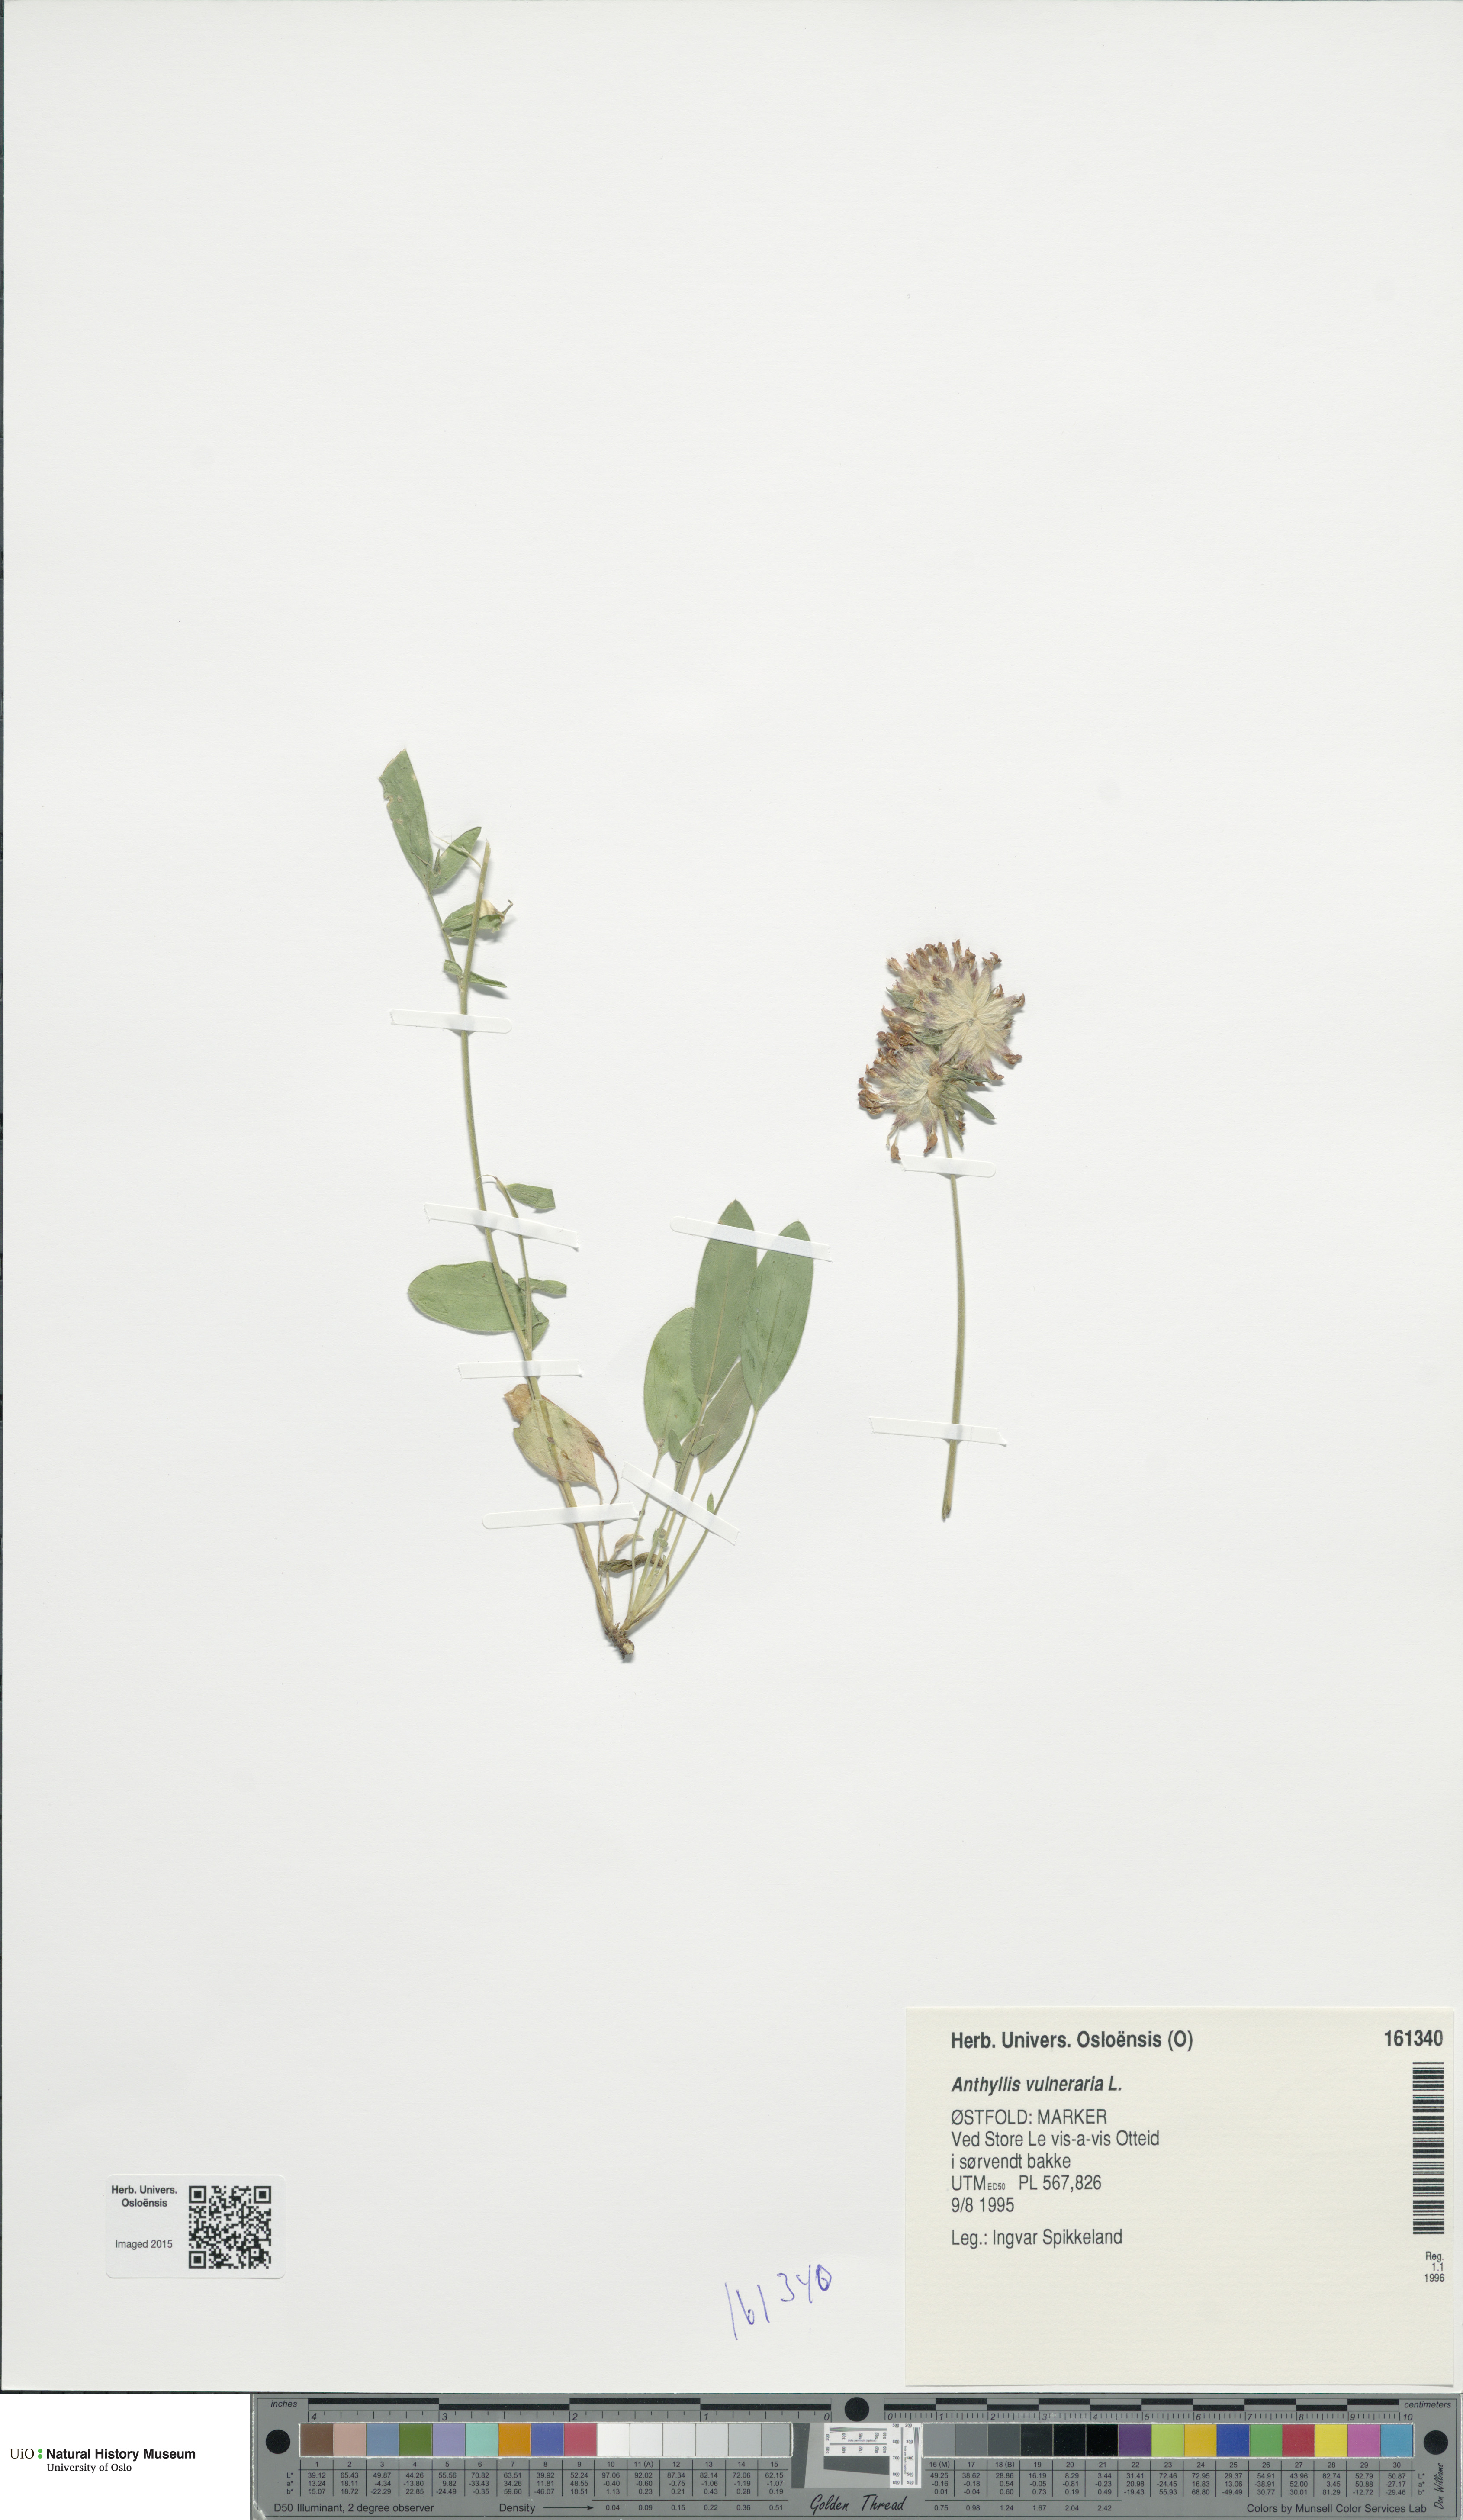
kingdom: Plantae
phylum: Tracheophyta
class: Magnoliopsida
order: Fabales
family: Fabaceae
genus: Anthyllis
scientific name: Anthyllis vulneraria
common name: Kidney vetch
